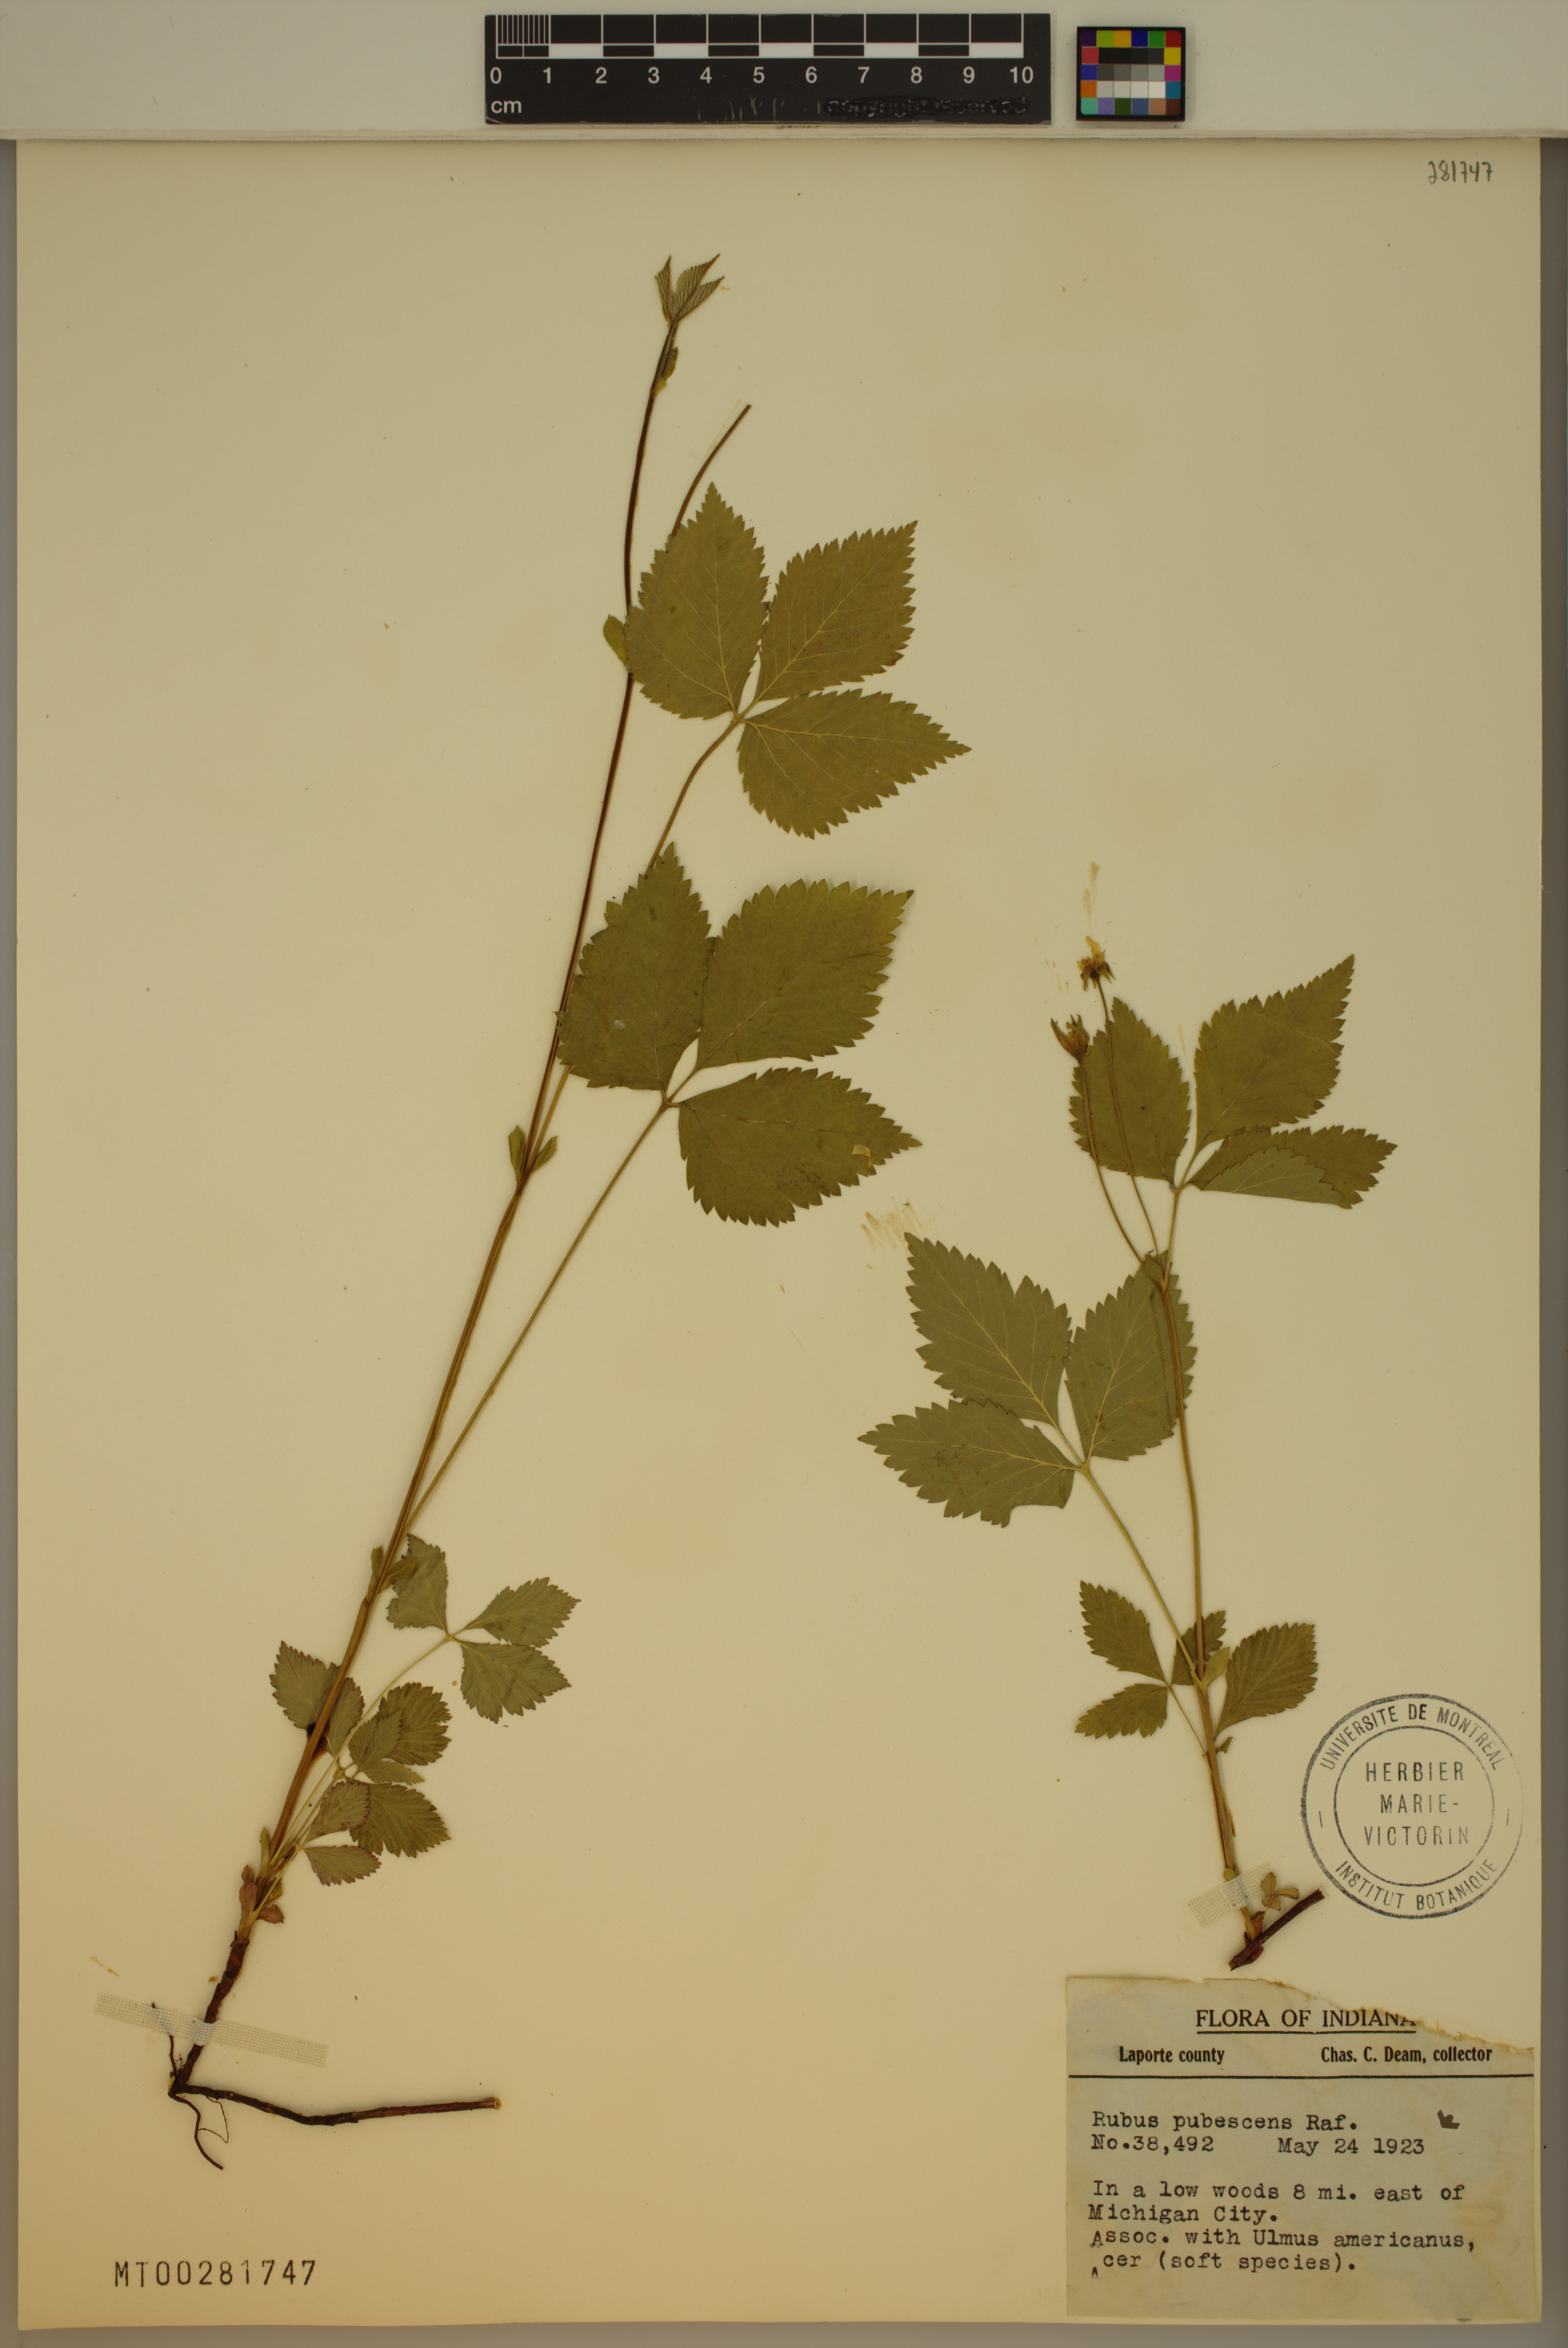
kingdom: Plantae
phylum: Tracheophyta
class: Magnoliopsida
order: Rosales
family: Rosaceae
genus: Rubus
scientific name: Rubus pubescens
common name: Dwarf raspberry
